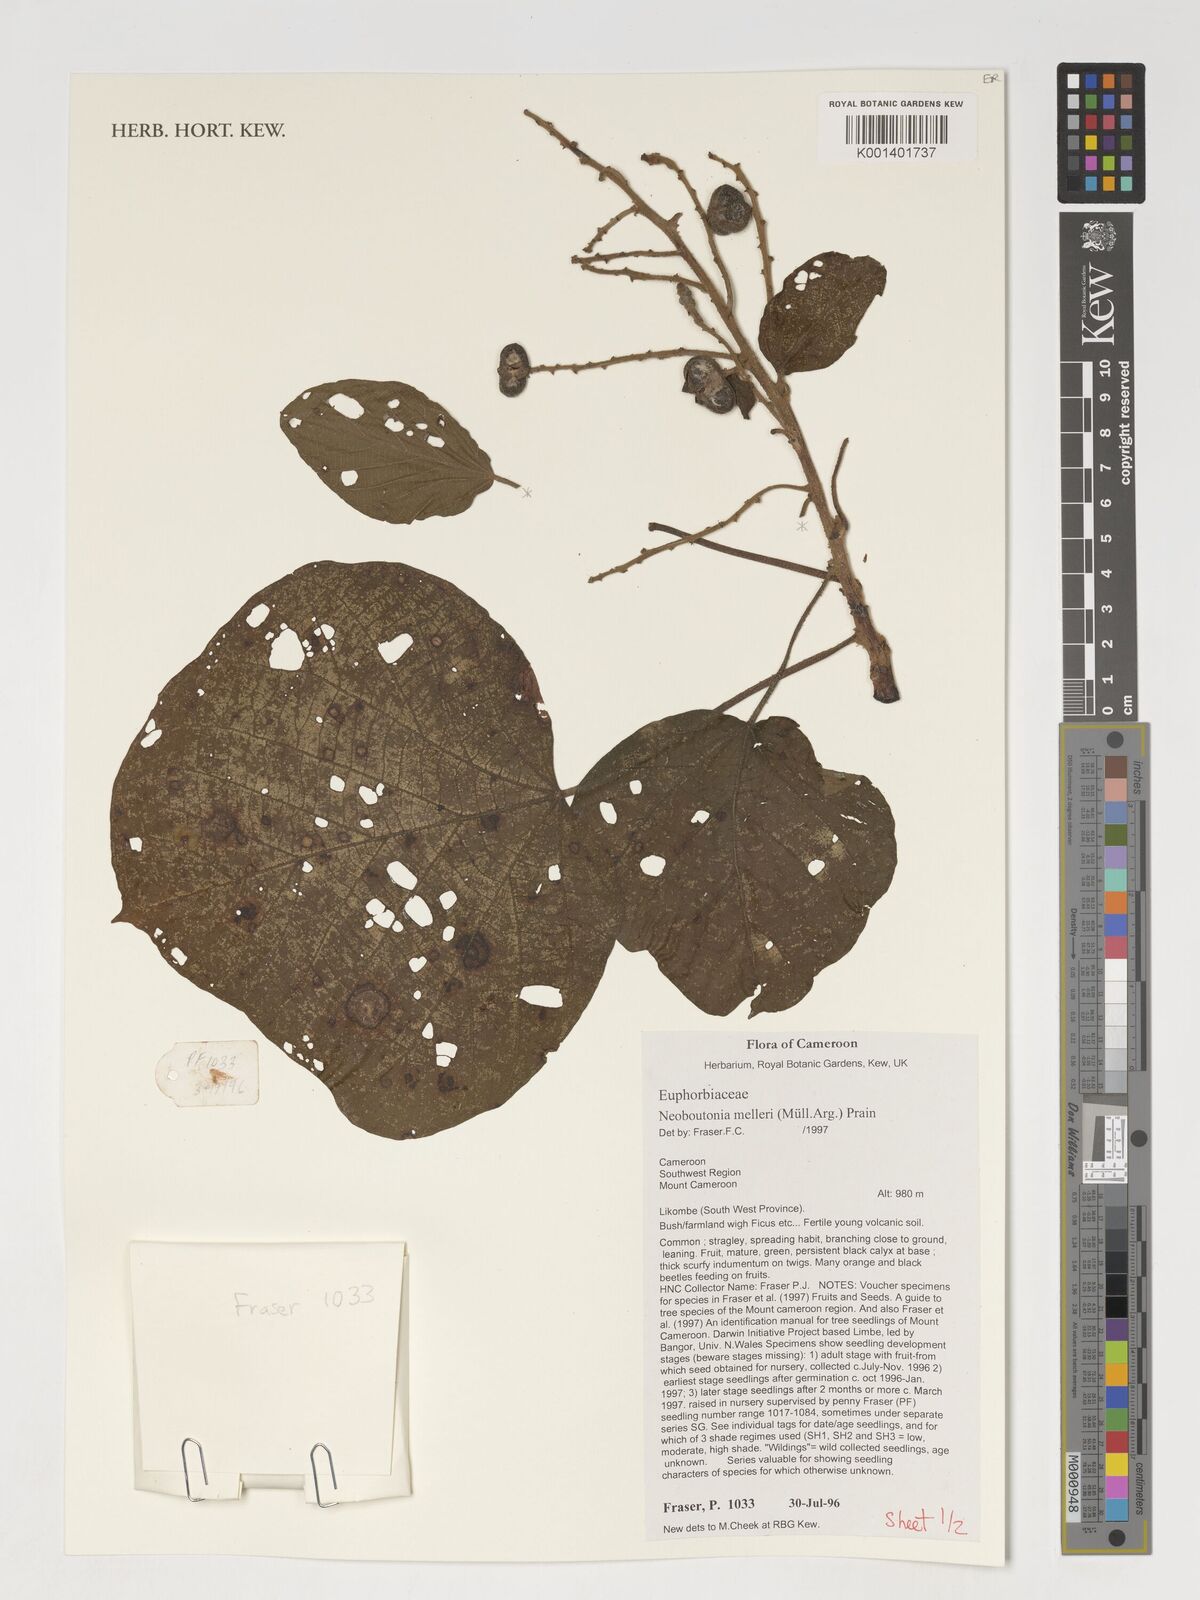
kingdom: Plantae
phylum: Tracheophyta
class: Magnoliopsida
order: Malpighiales
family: Euphorbiaceae
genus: Neoboutonia
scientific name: Neoboutonia melleri
